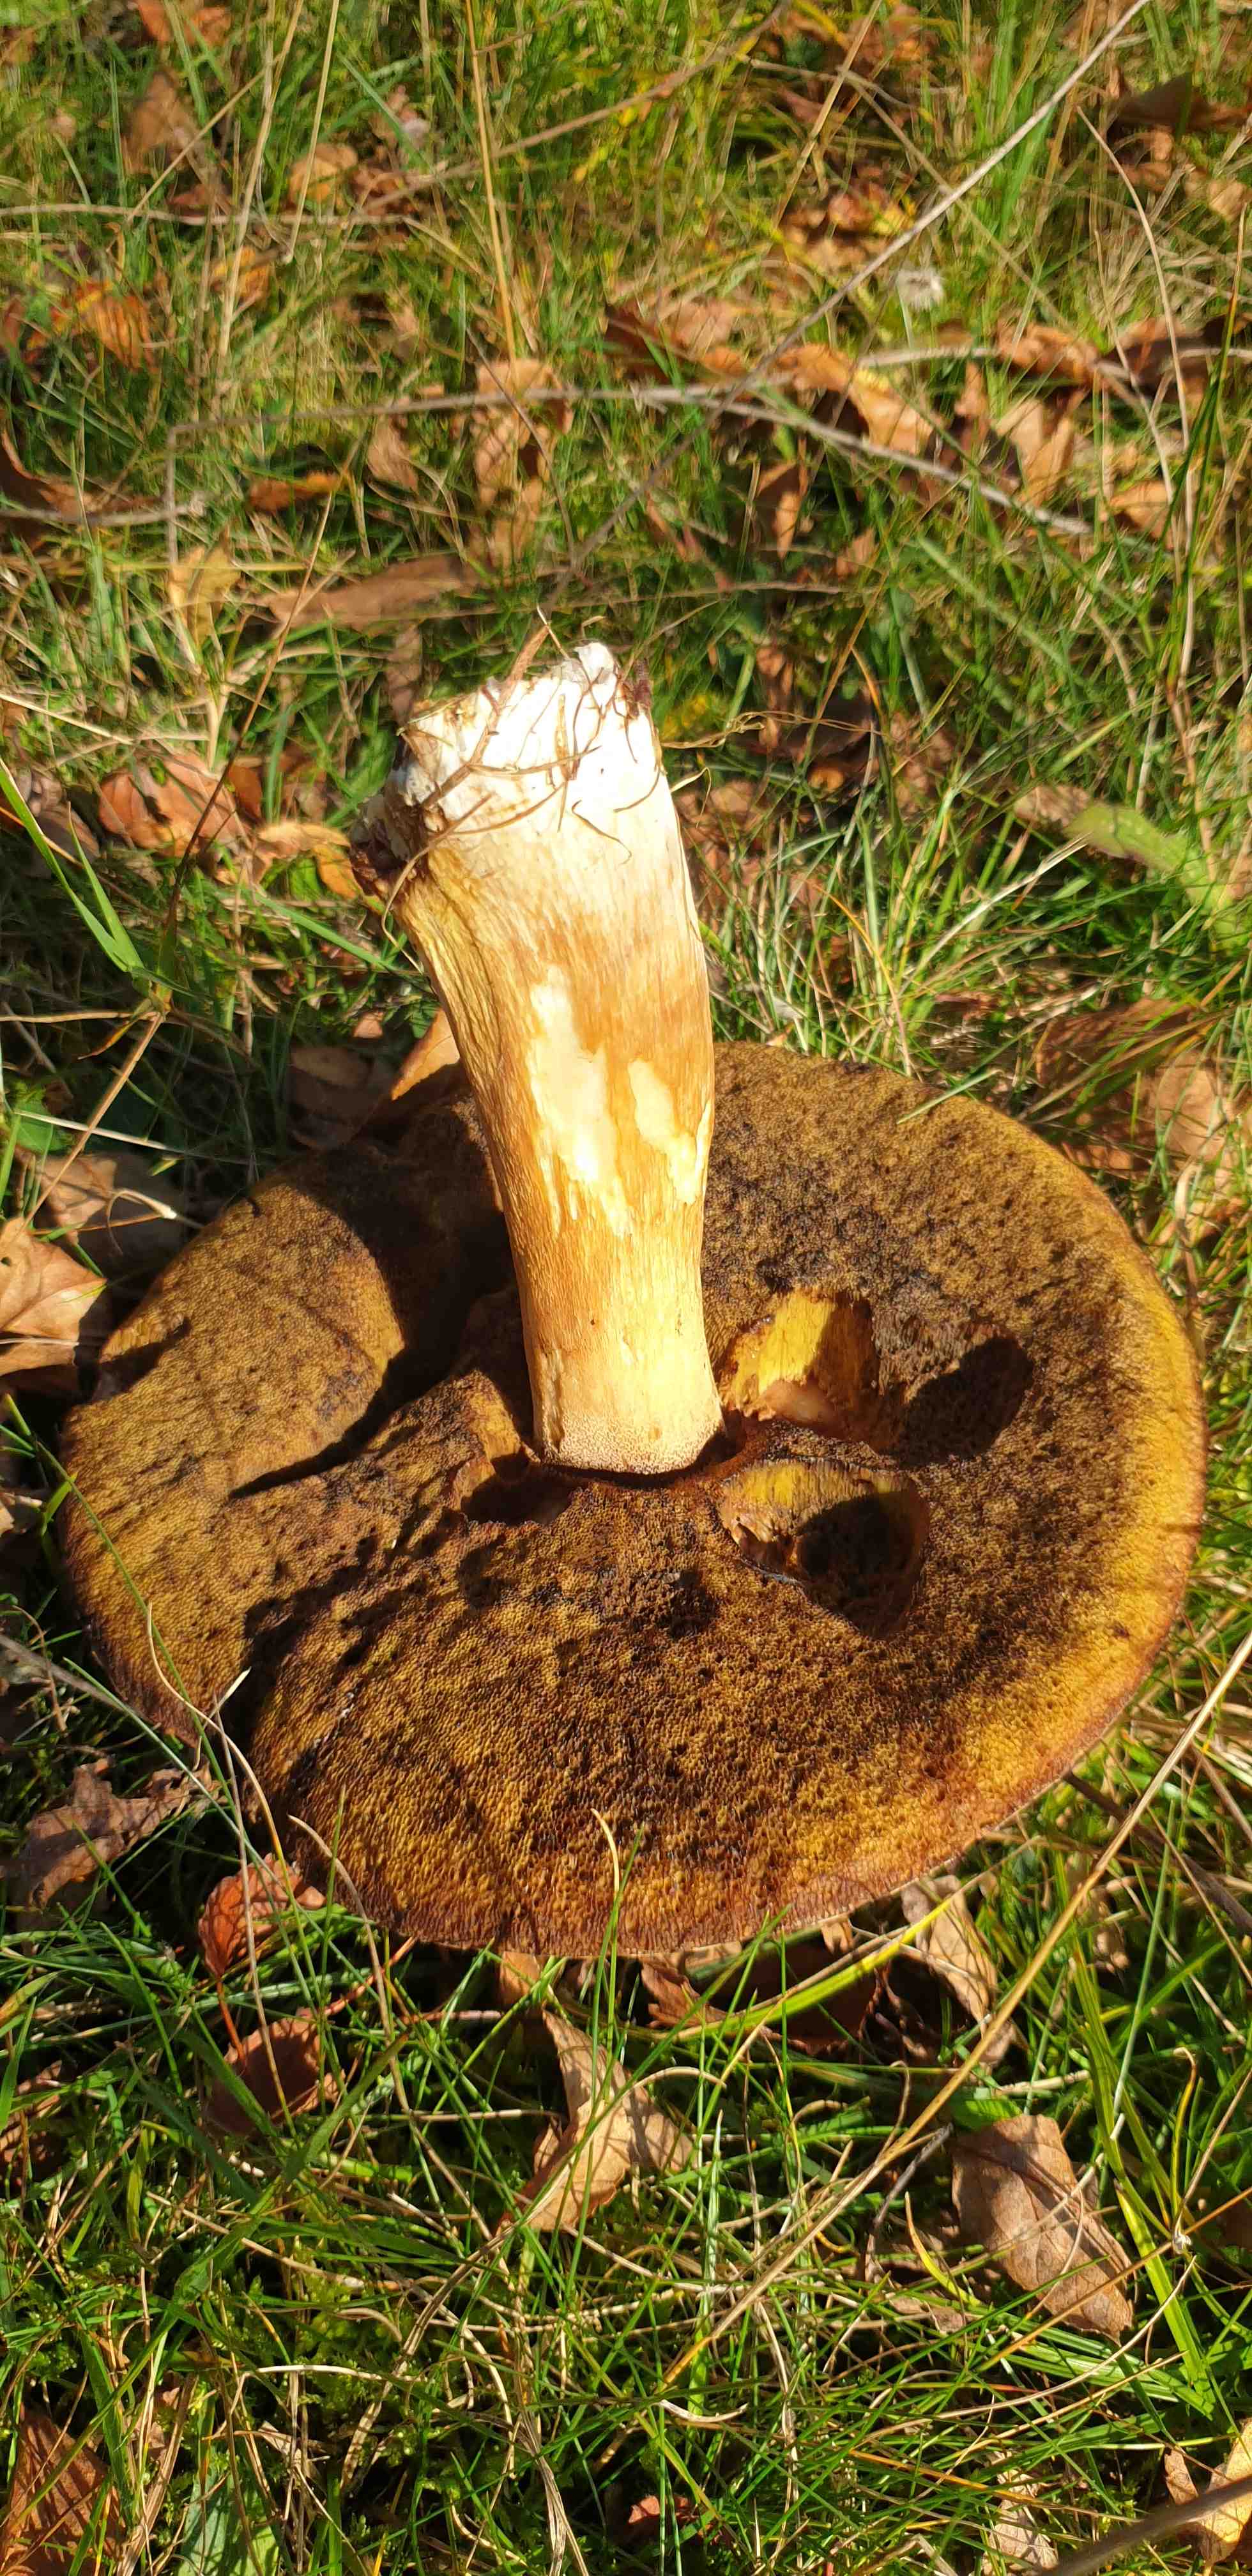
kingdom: Fungi
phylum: Basidiomycota
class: Agaricomycetes
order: Boletales
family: Boletaceae
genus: Boletus
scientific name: Boletus edulis
